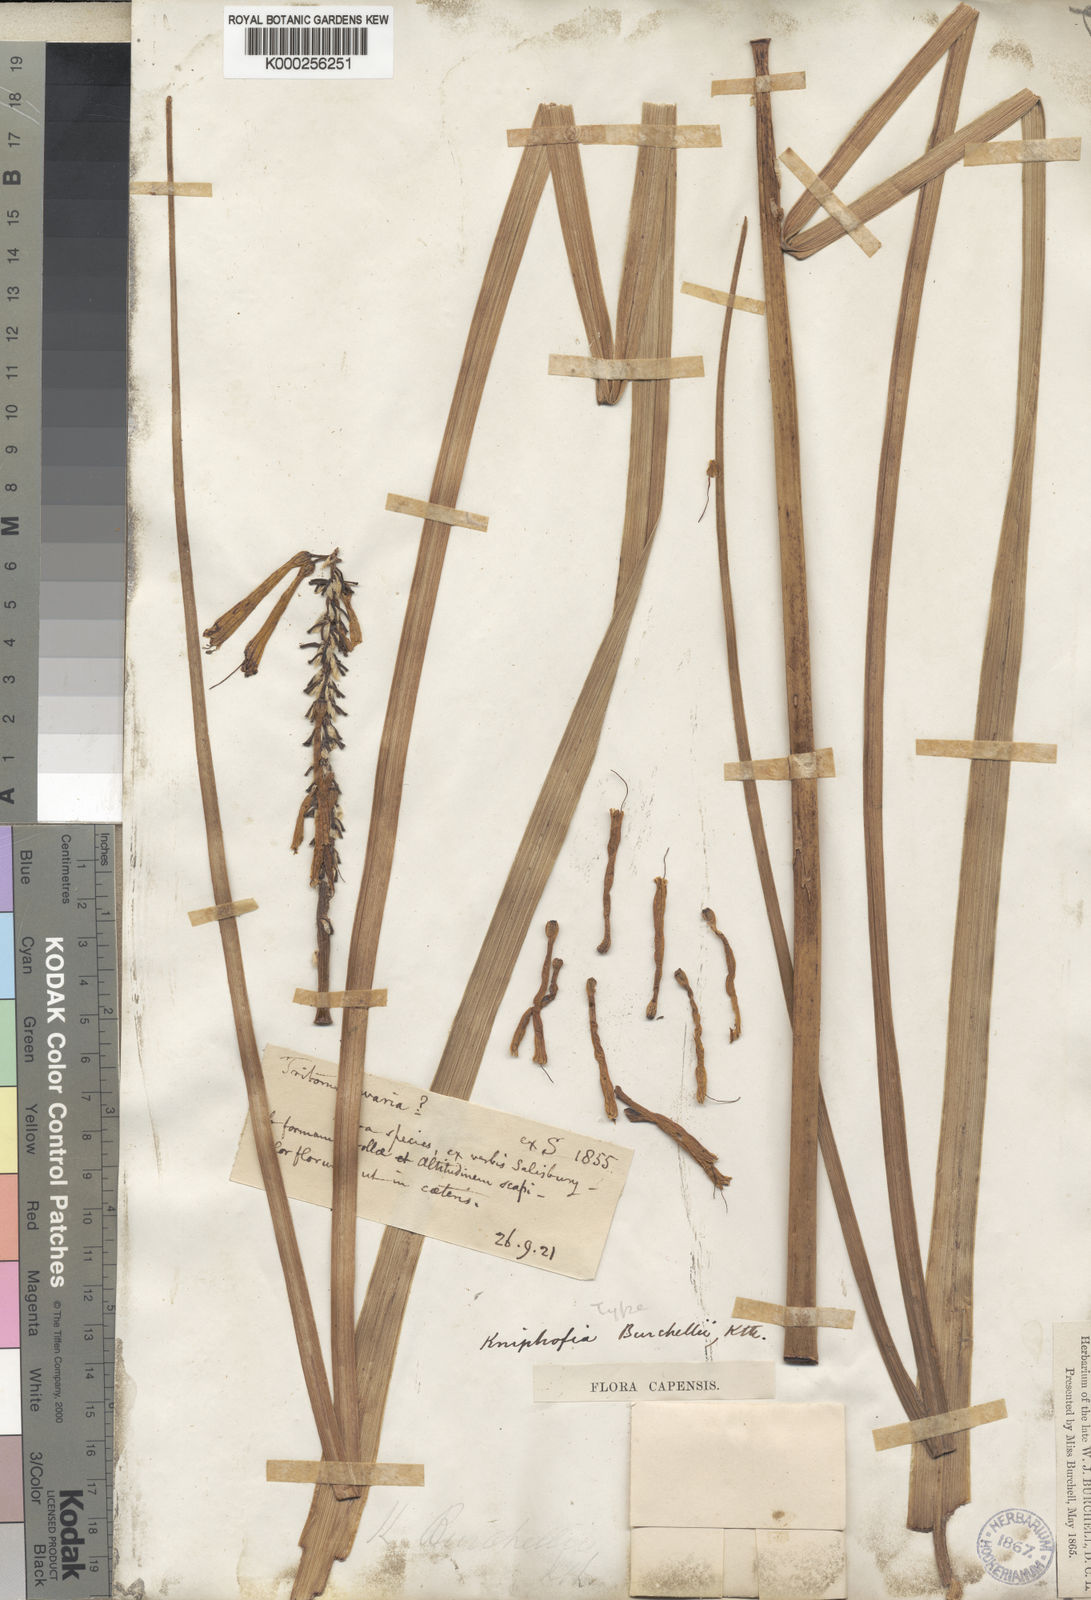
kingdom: Plantae
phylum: Tracheophyta
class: Liliopsida
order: Asparagales
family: Asphodelaceae
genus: Kniphofia
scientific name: Kniphofia
